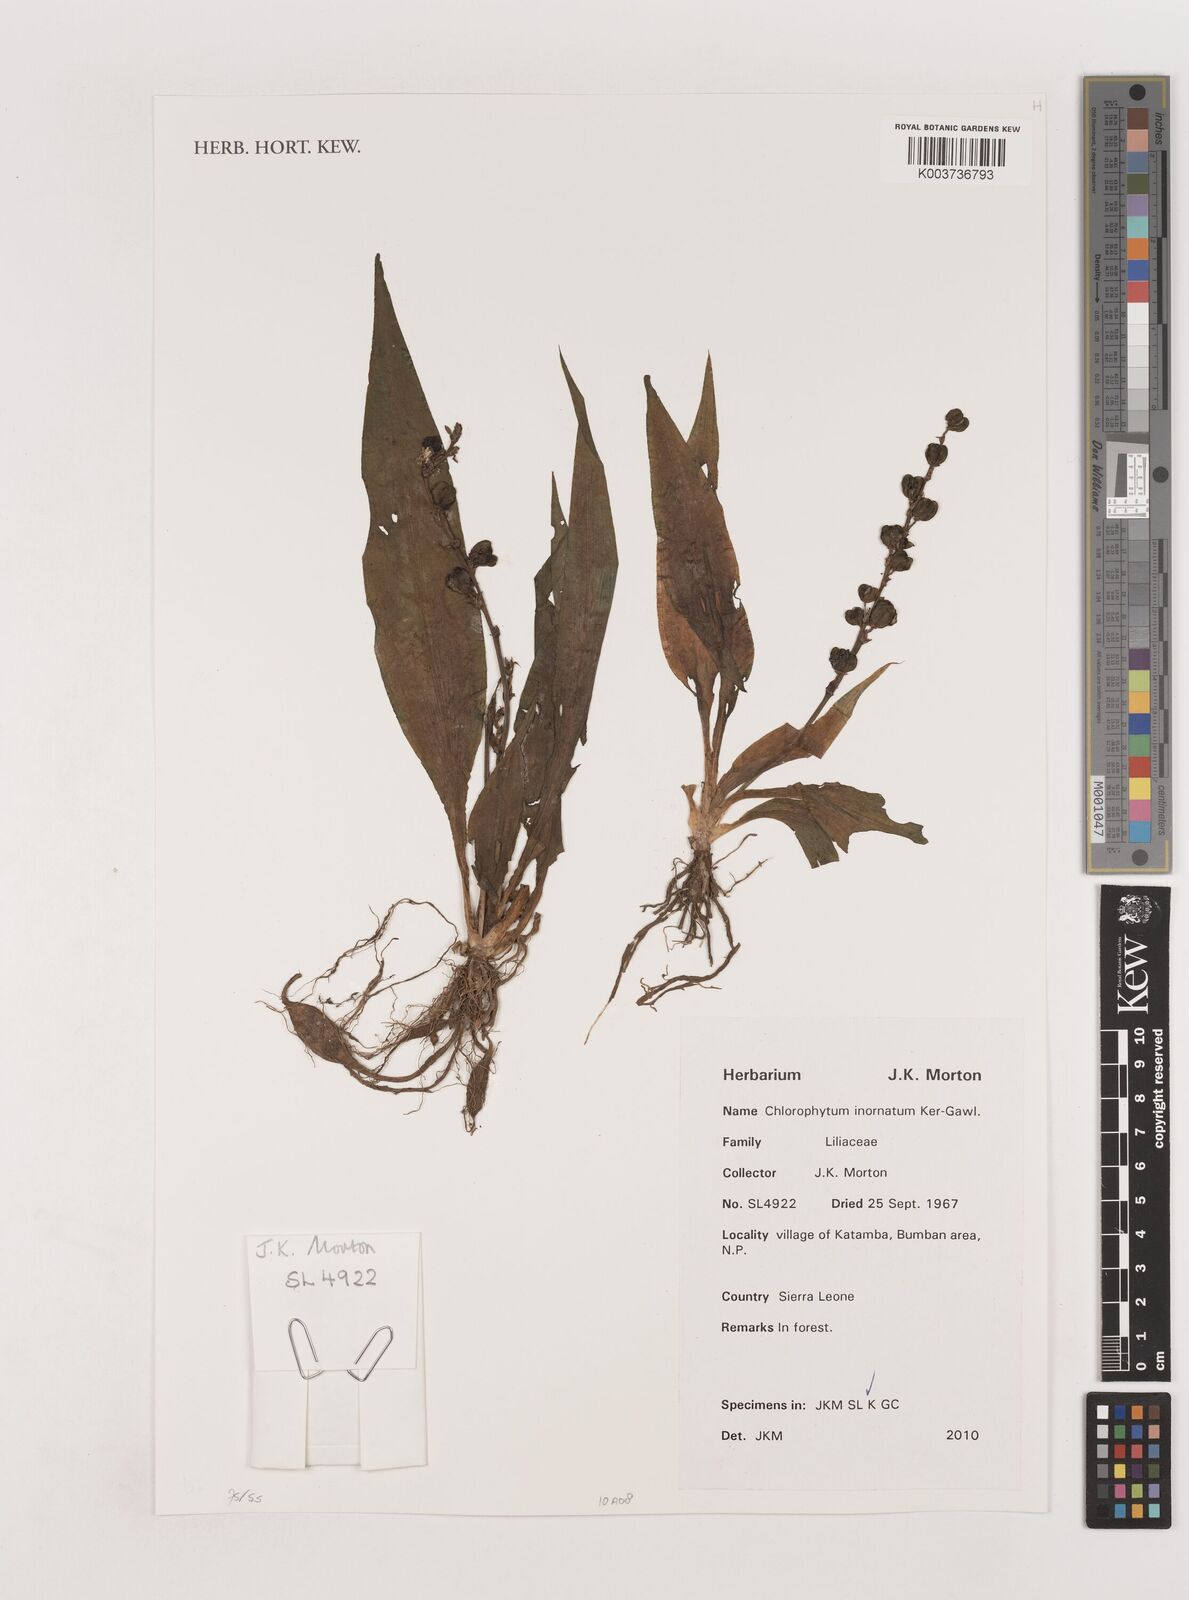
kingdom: Plantae
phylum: Tracheophyta
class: Liliopsida
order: Asparagales
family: Asparagaceae
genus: Chlorophytum
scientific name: Chlorophytum inornatum
